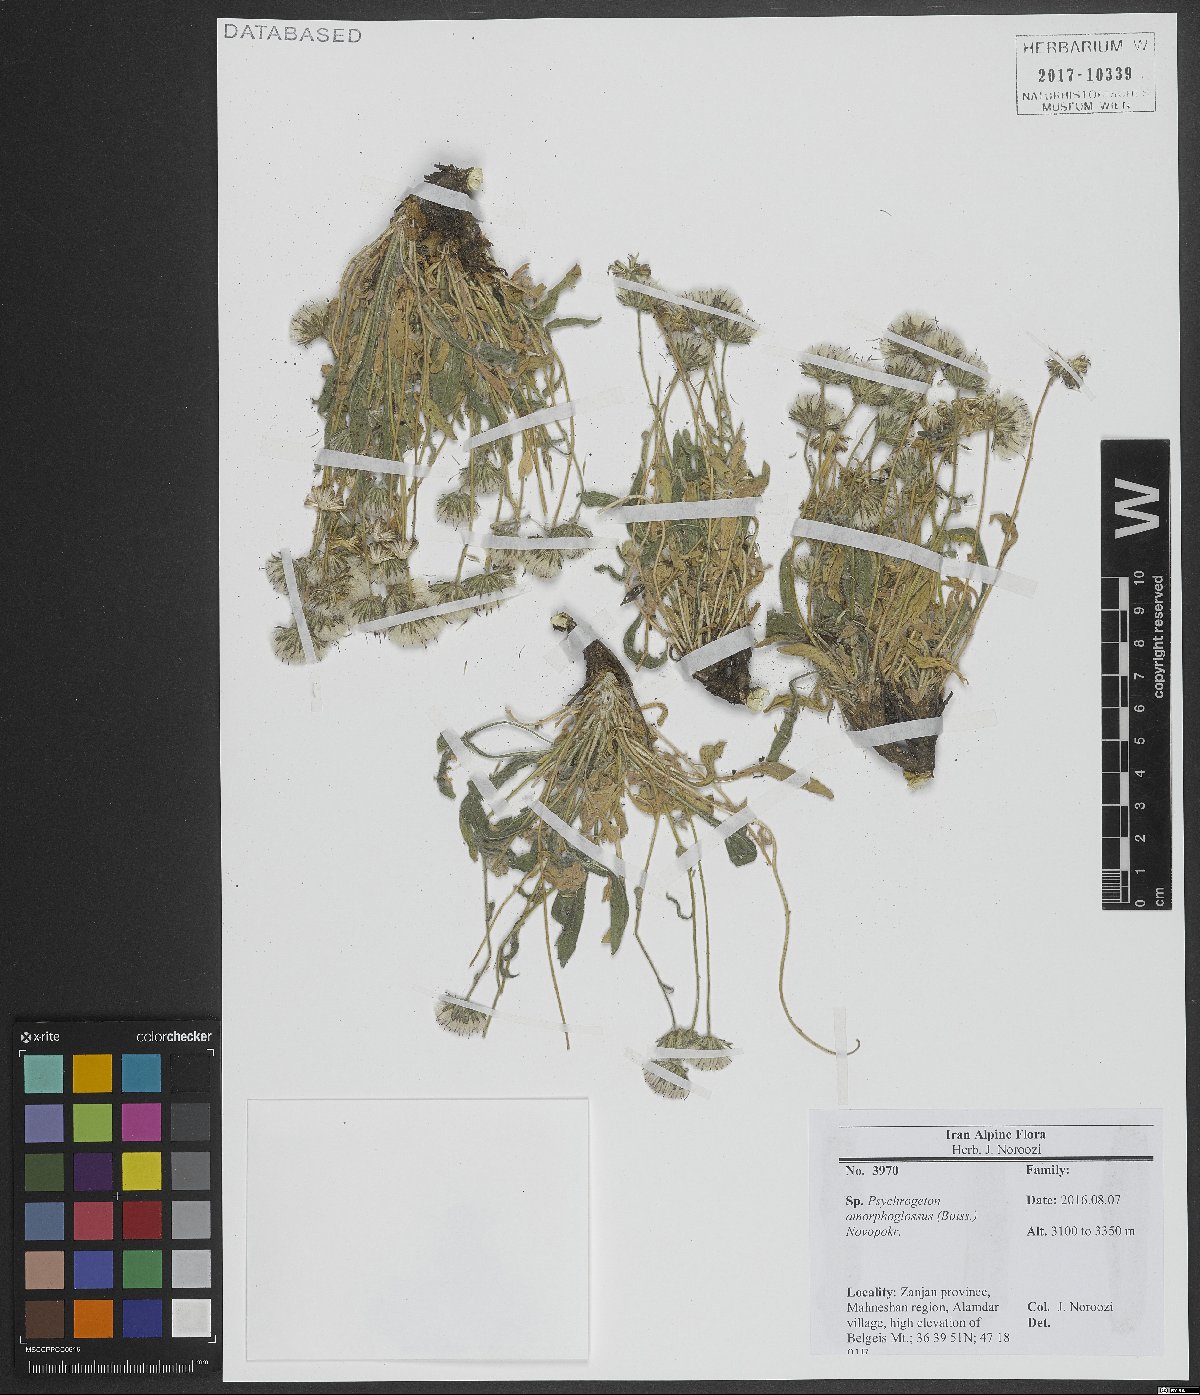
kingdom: Plantae
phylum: Tracheophyta
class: Magnoliopsida
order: Asterales
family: Asteraceae
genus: Psychrogeton
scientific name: Psychrogeton amorphoglossus
